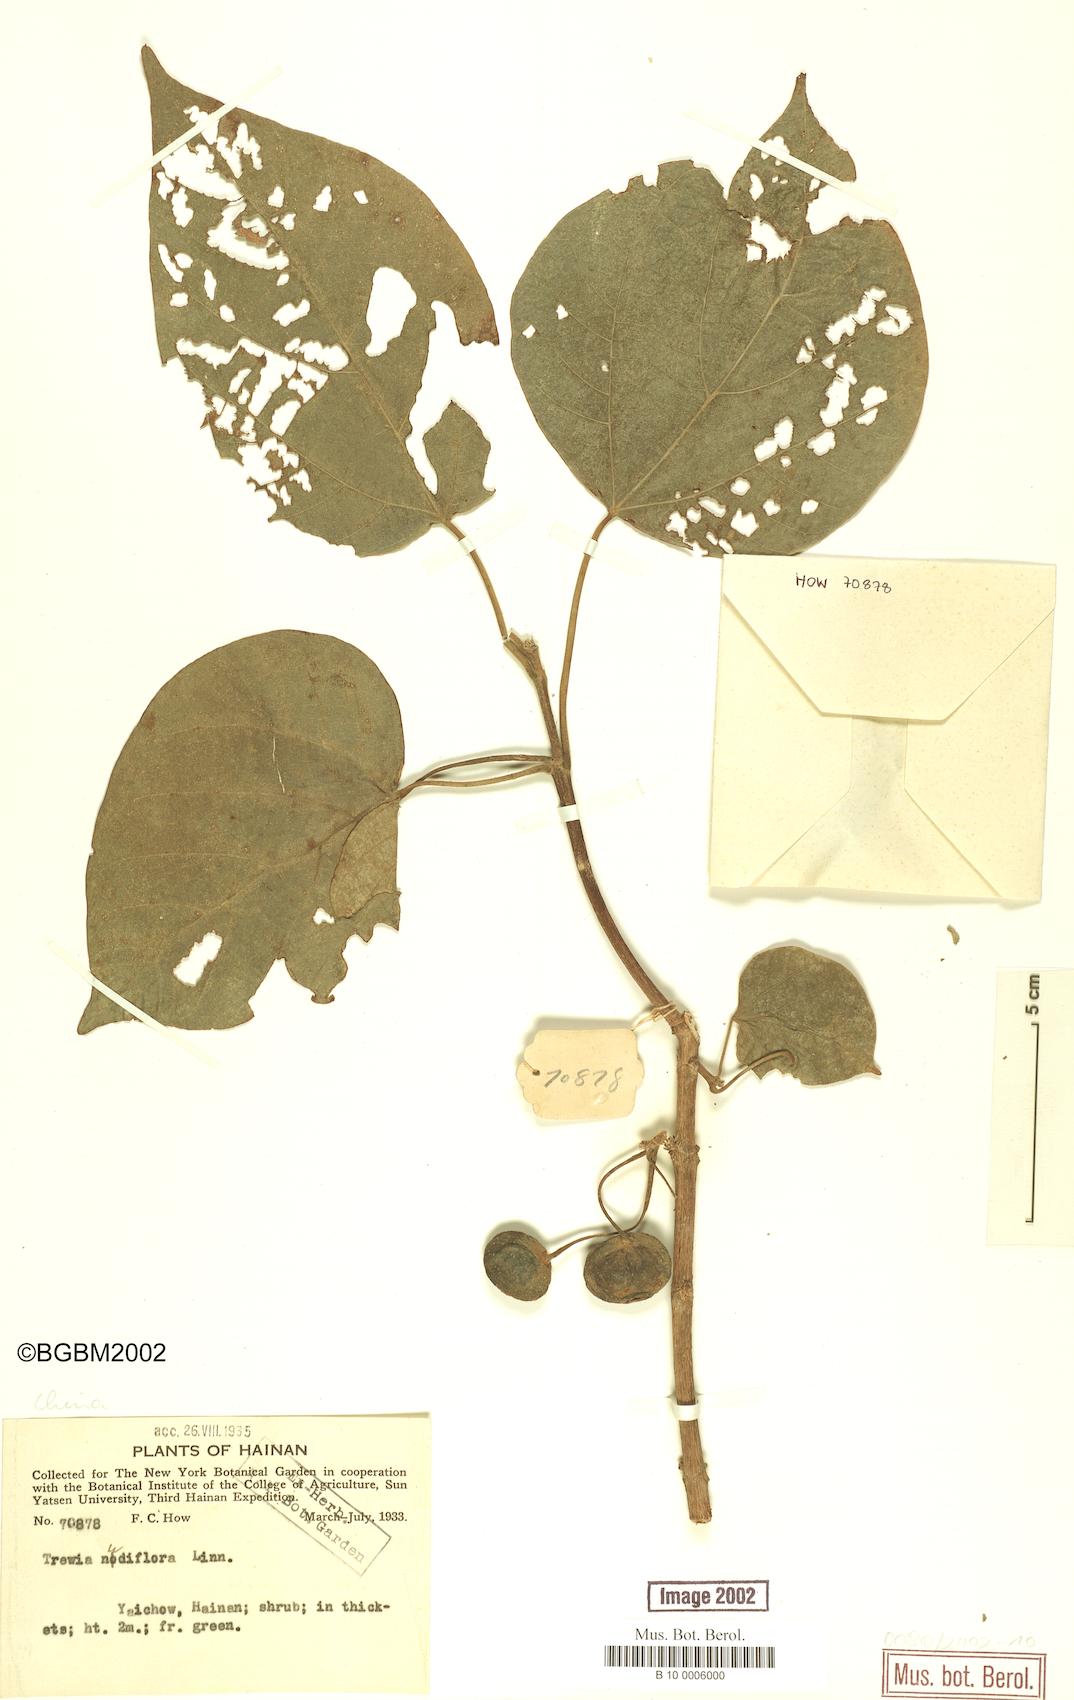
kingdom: Plantae
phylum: Tracheophyta
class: Magnoliopsida
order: Malpighiales
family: Euphorbiaceae
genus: Trewia
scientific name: Trewia nudiflora
